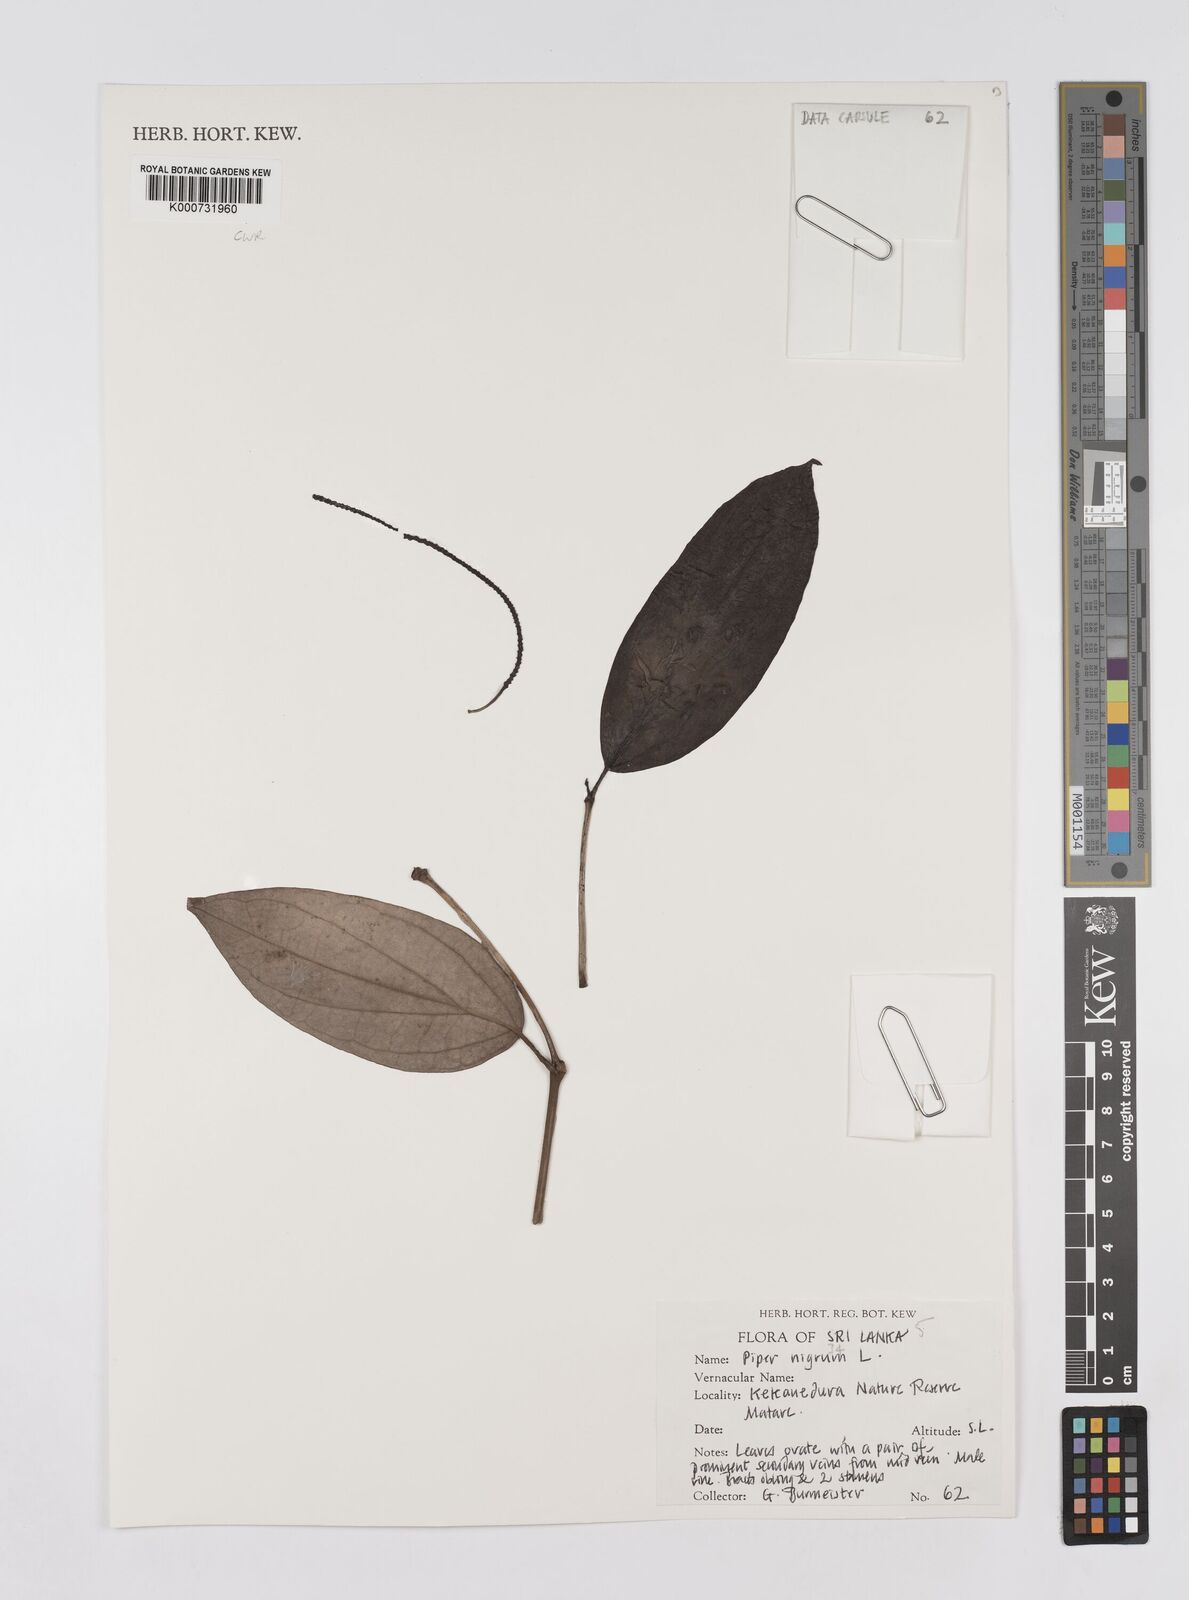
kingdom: Plantae
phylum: Tracheophyta
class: Magnoliopsida
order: Piperales
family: Piperaceae
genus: Piper
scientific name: Piper nigrum
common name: Black pepper
